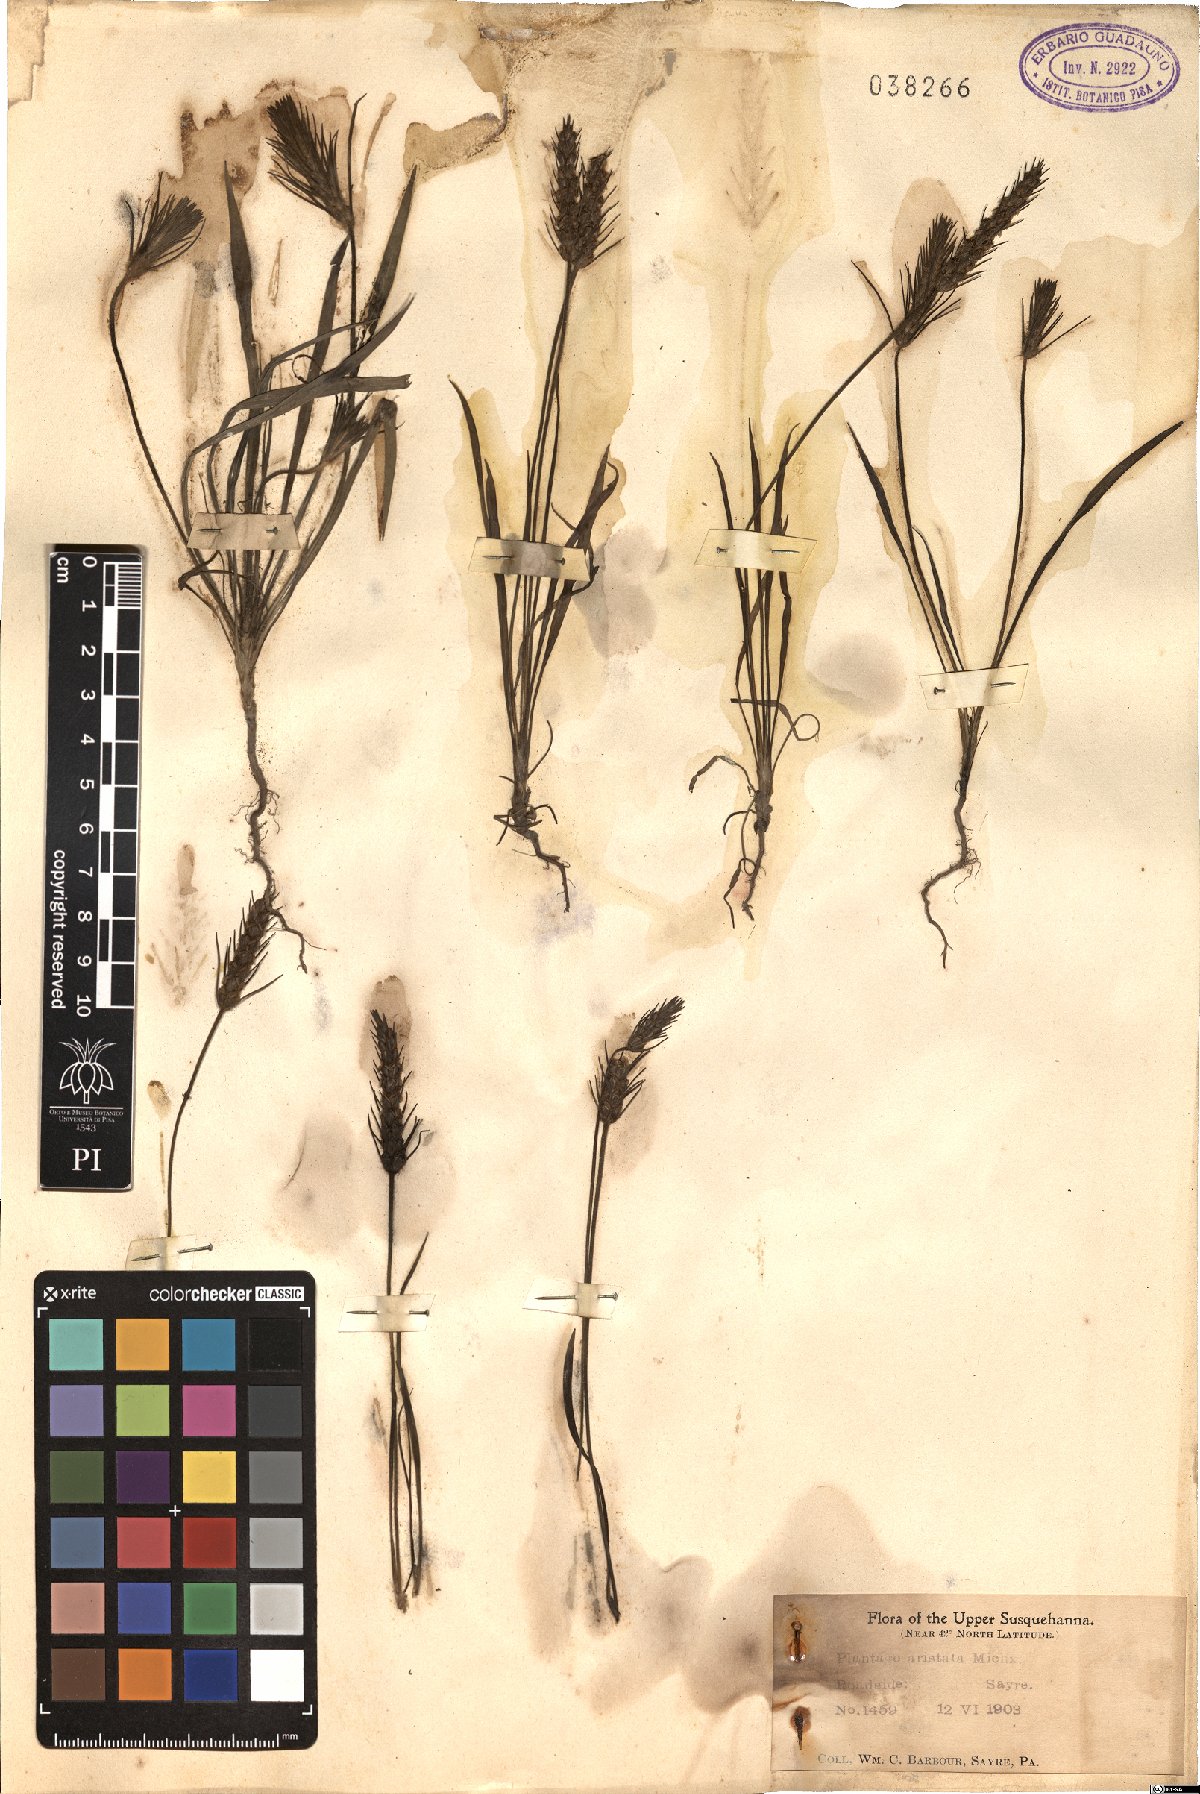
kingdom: Plantae
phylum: Tracheophyta
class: Magnoliopsida
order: Lamiales
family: Plantaginaceae
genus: Plantago
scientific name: Plantago aristata
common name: Bracted plantain
